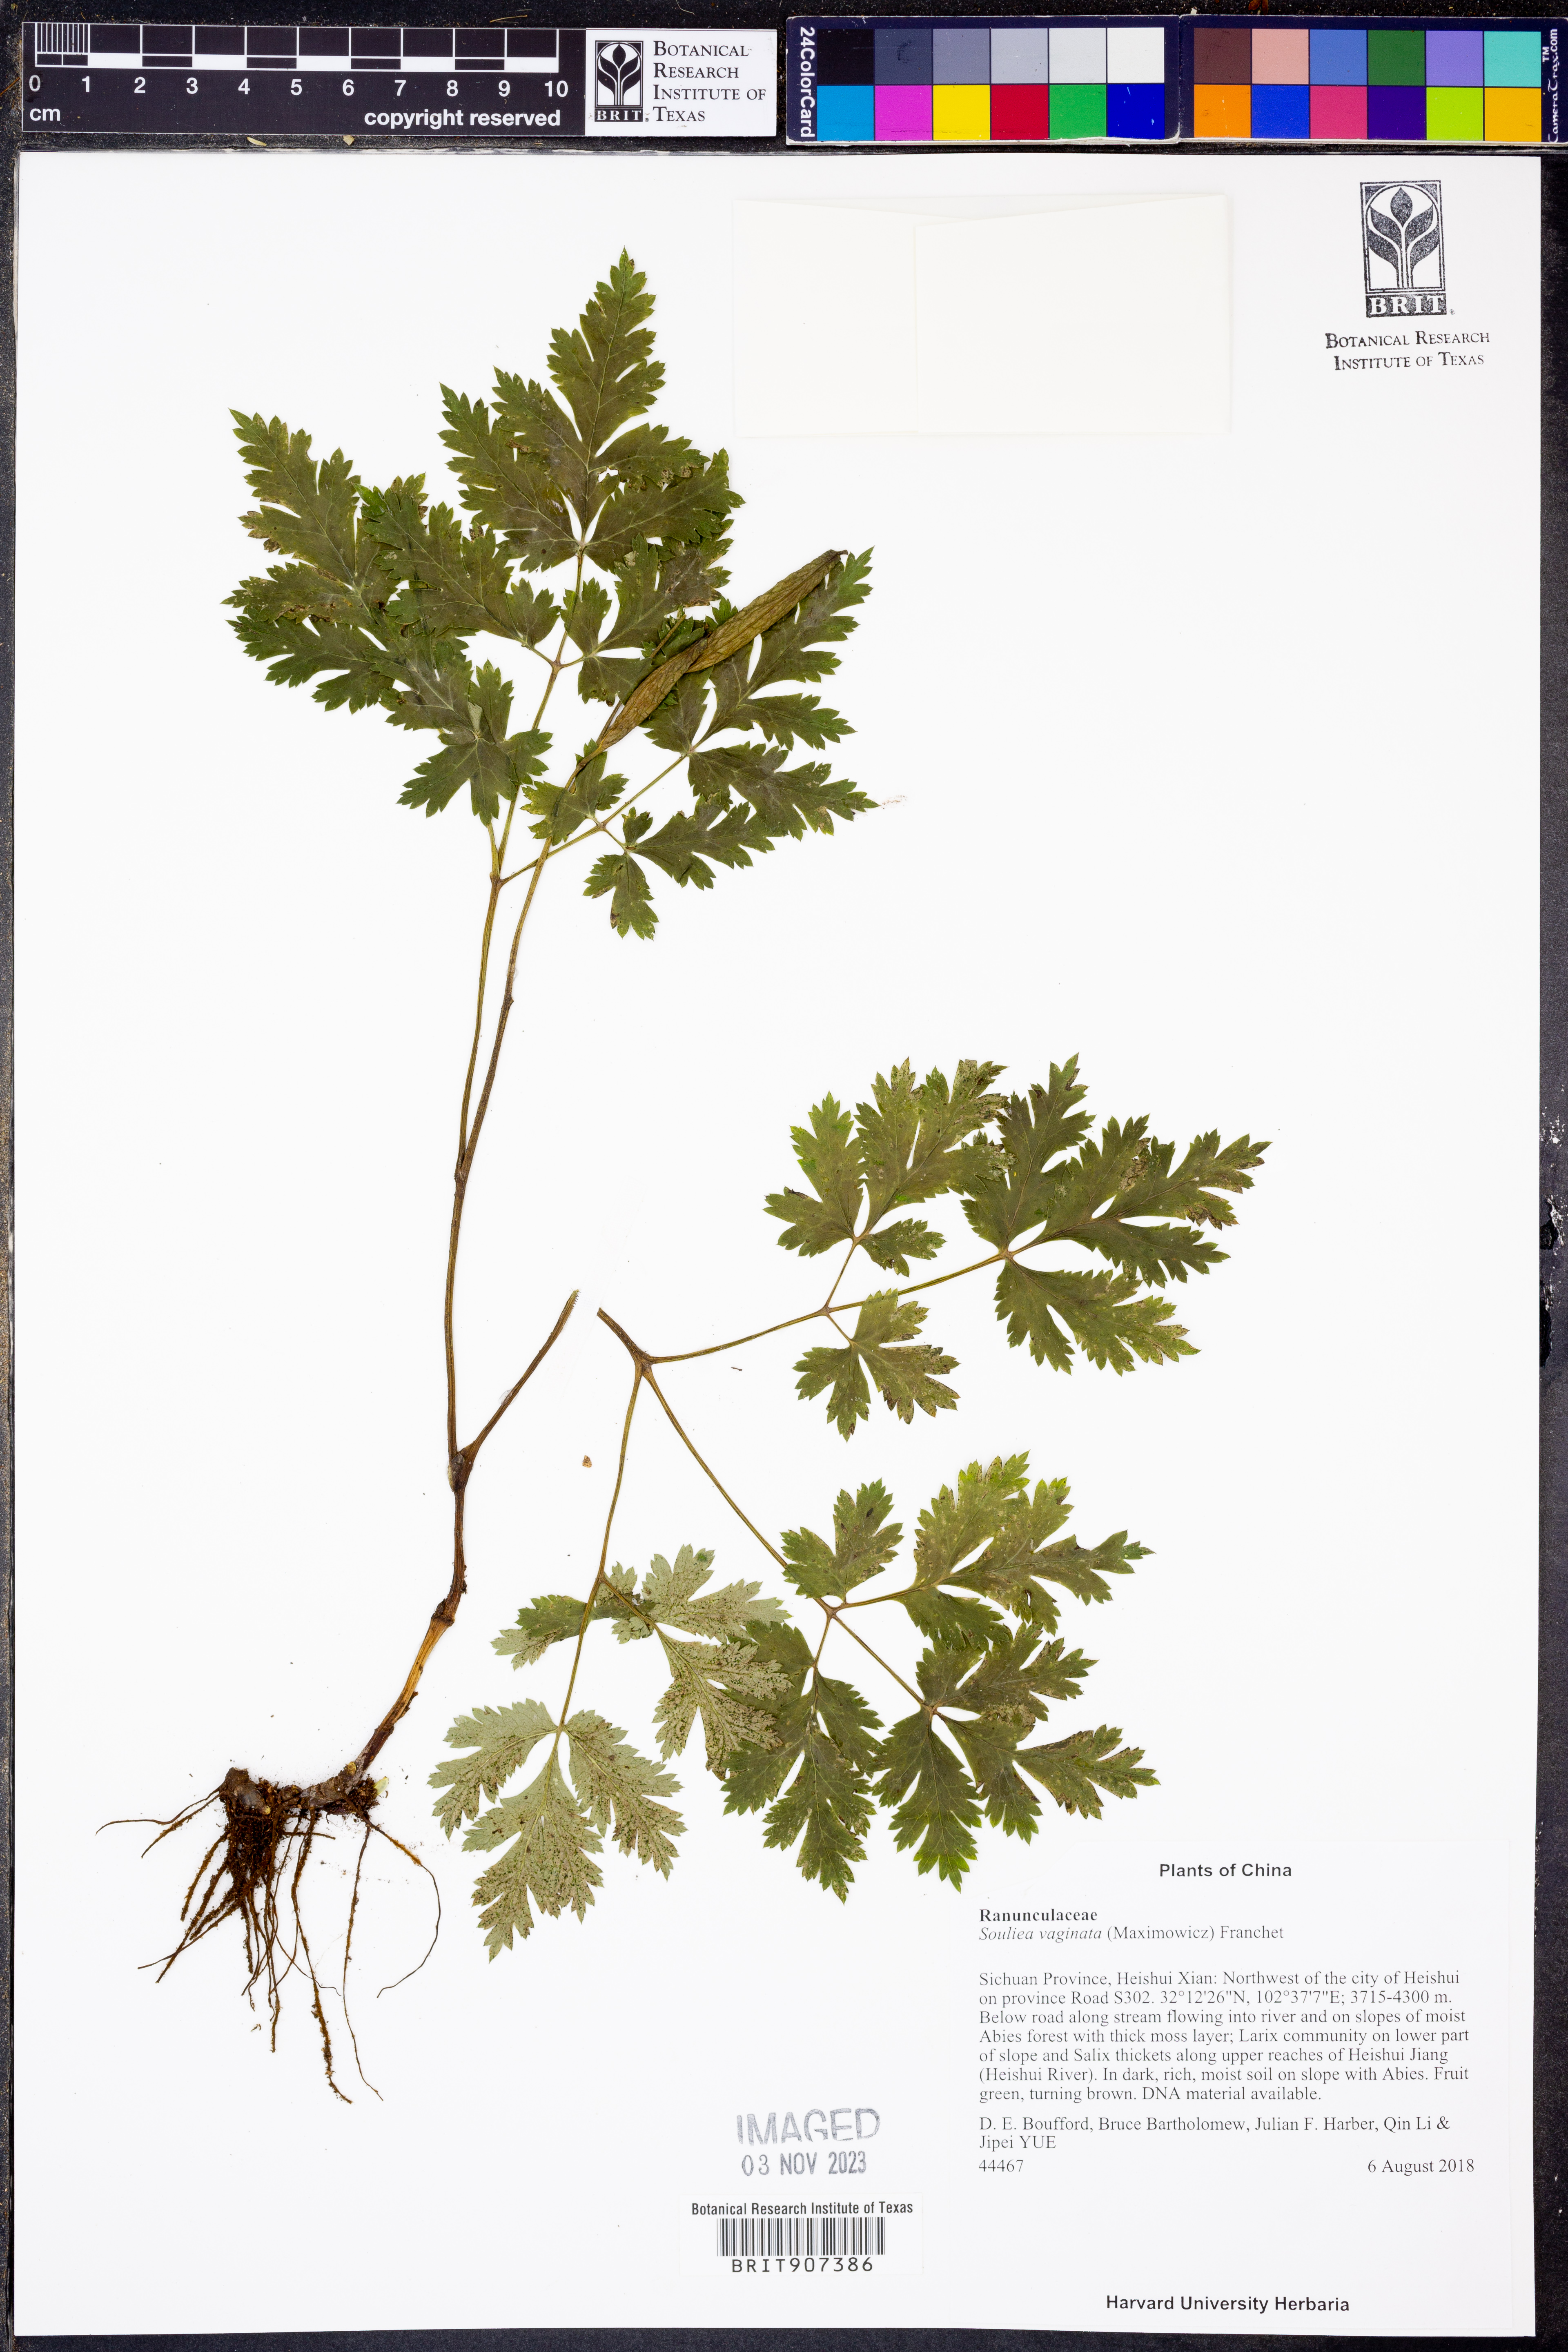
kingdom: Plantae
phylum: Tracheophyta
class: Magnoliopsida
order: Ranunculales
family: Ranunculaceae
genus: Actaea
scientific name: Actaea vaginata
